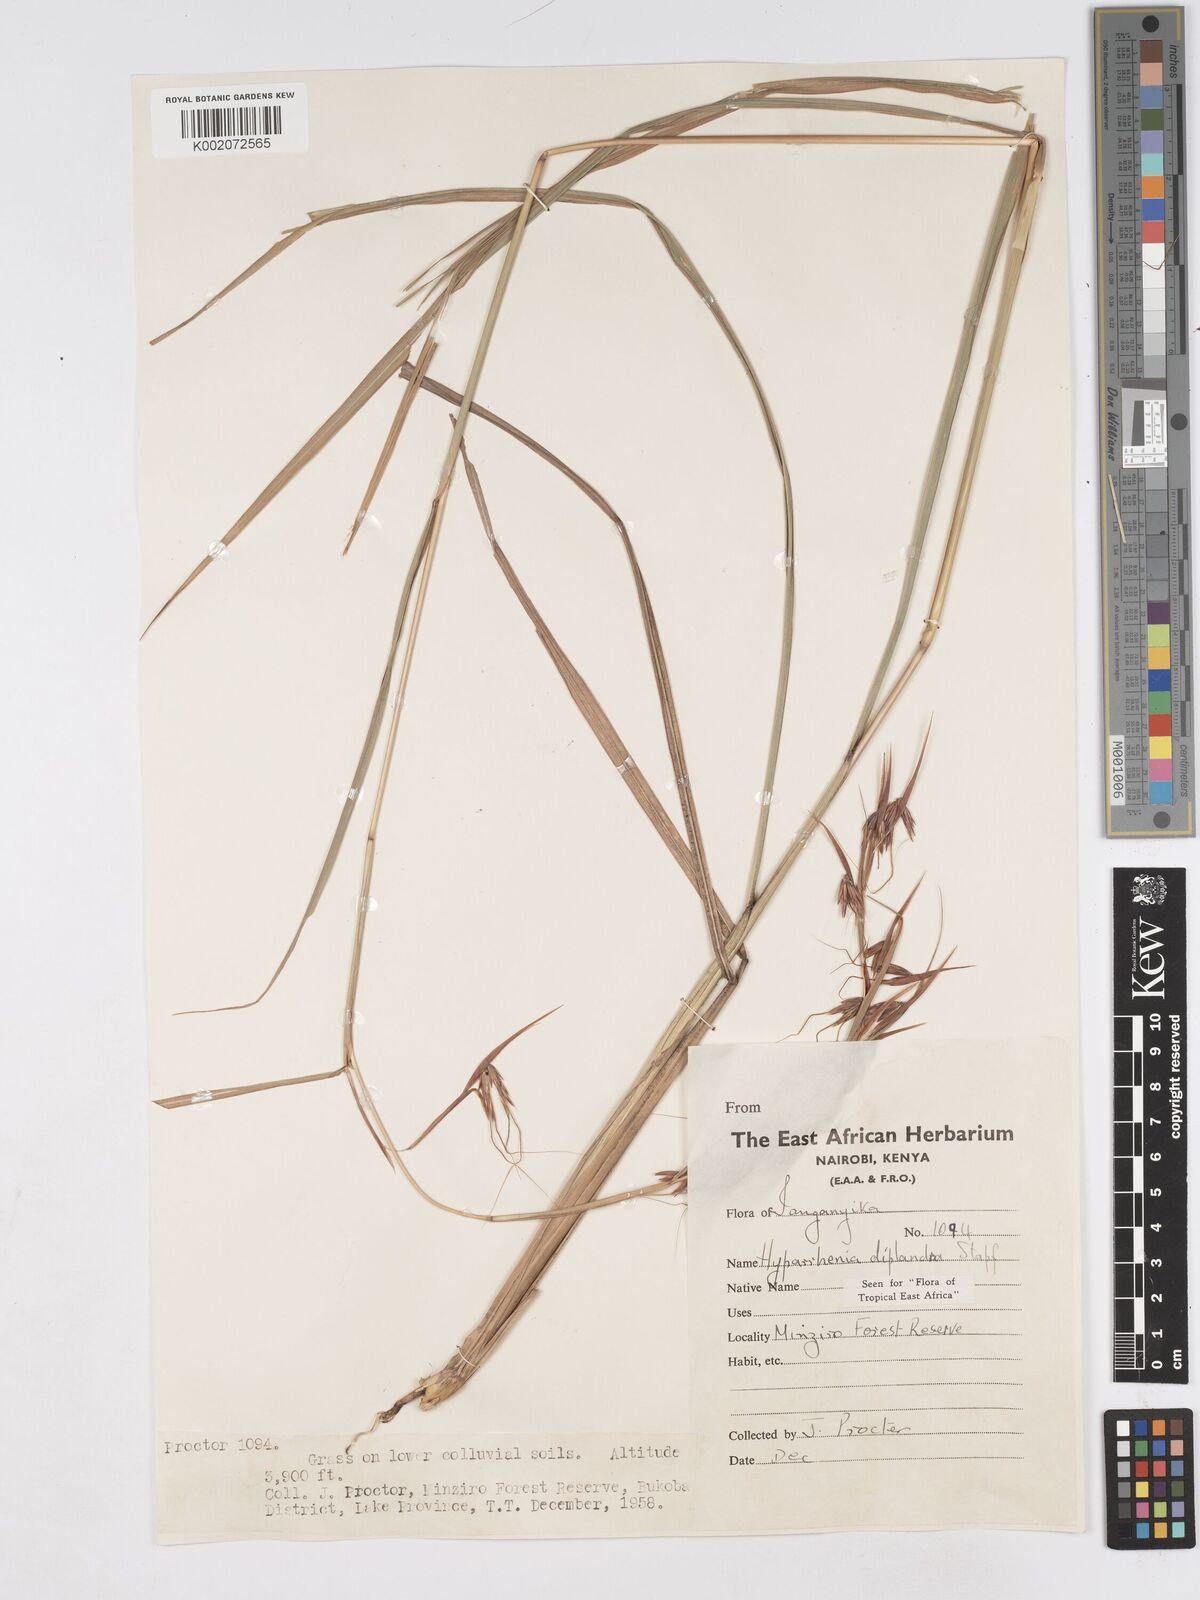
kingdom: Plantae
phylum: Tracheophyta
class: Liliopsida
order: Poales
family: Poaceae
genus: Hyparrhenia
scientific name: Hyparrhenia diplandra
